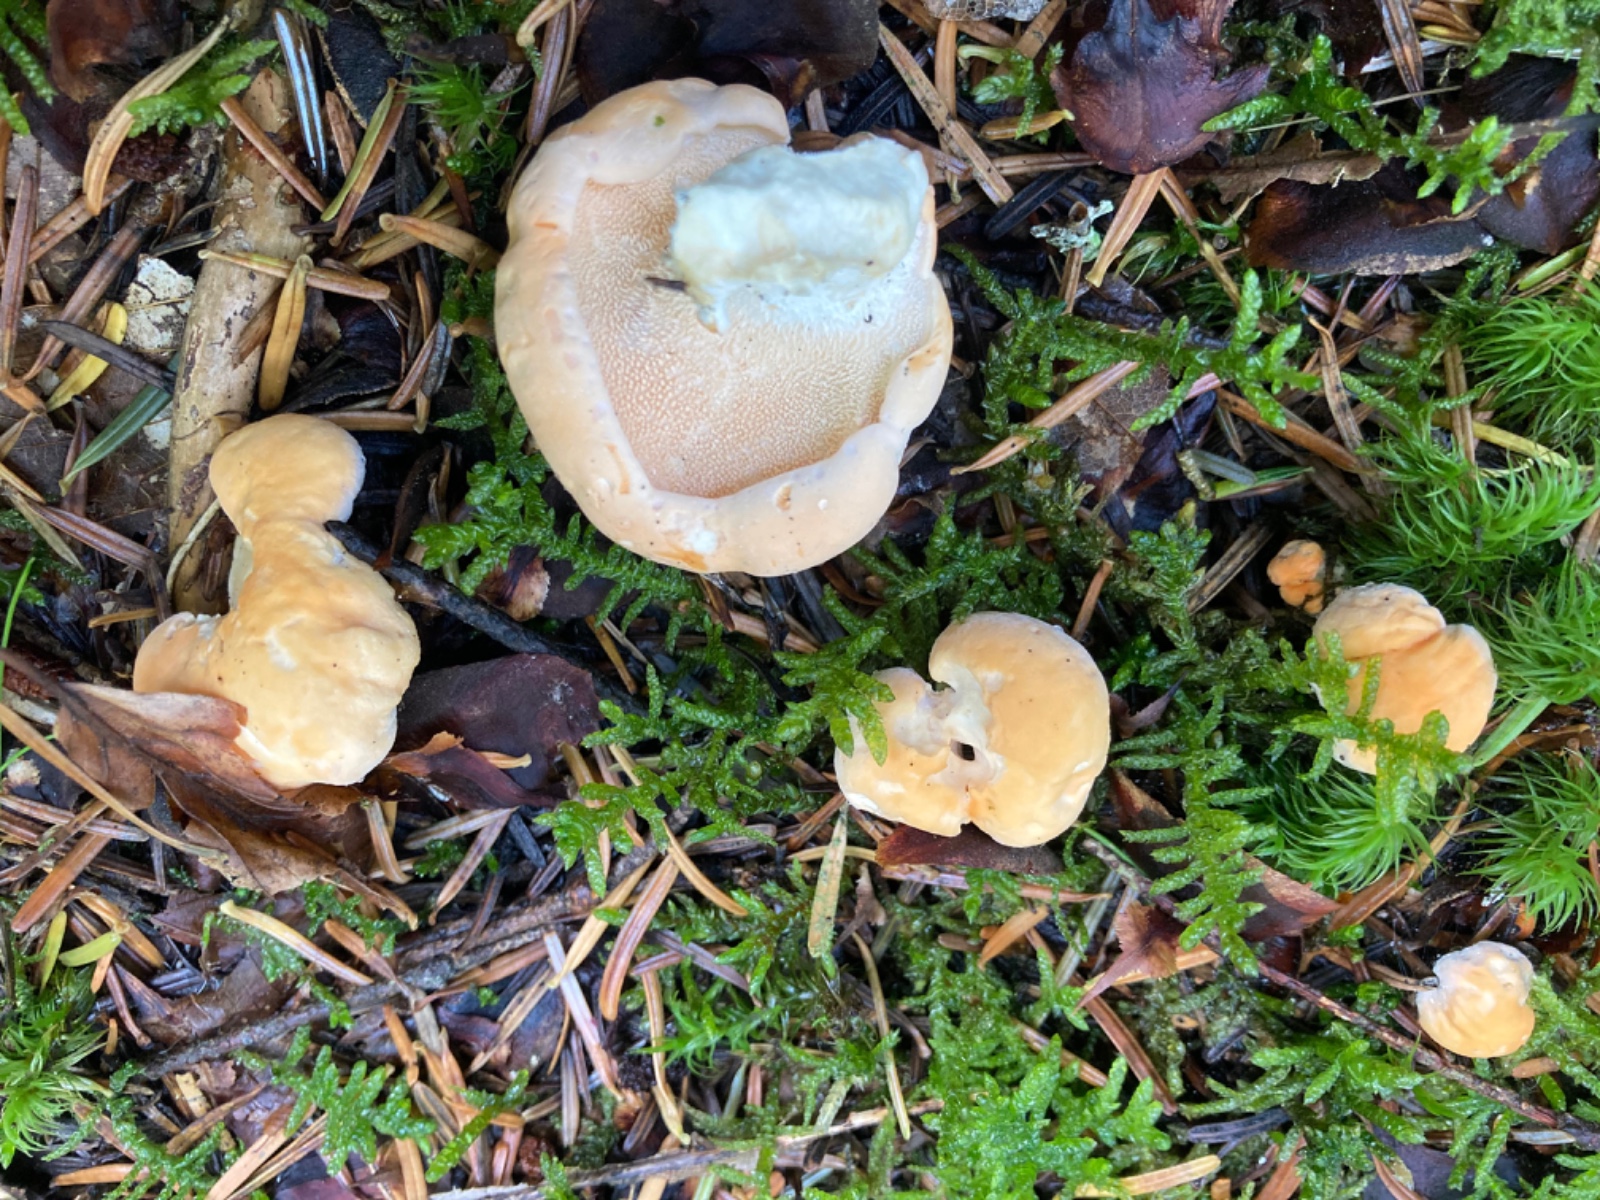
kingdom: Fungi
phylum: Basidiomycota
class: Agaricomycetes
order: Cantharellales
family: Hydnaceae
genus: Hydnum
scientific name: Hydnum
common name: pigsvamp
